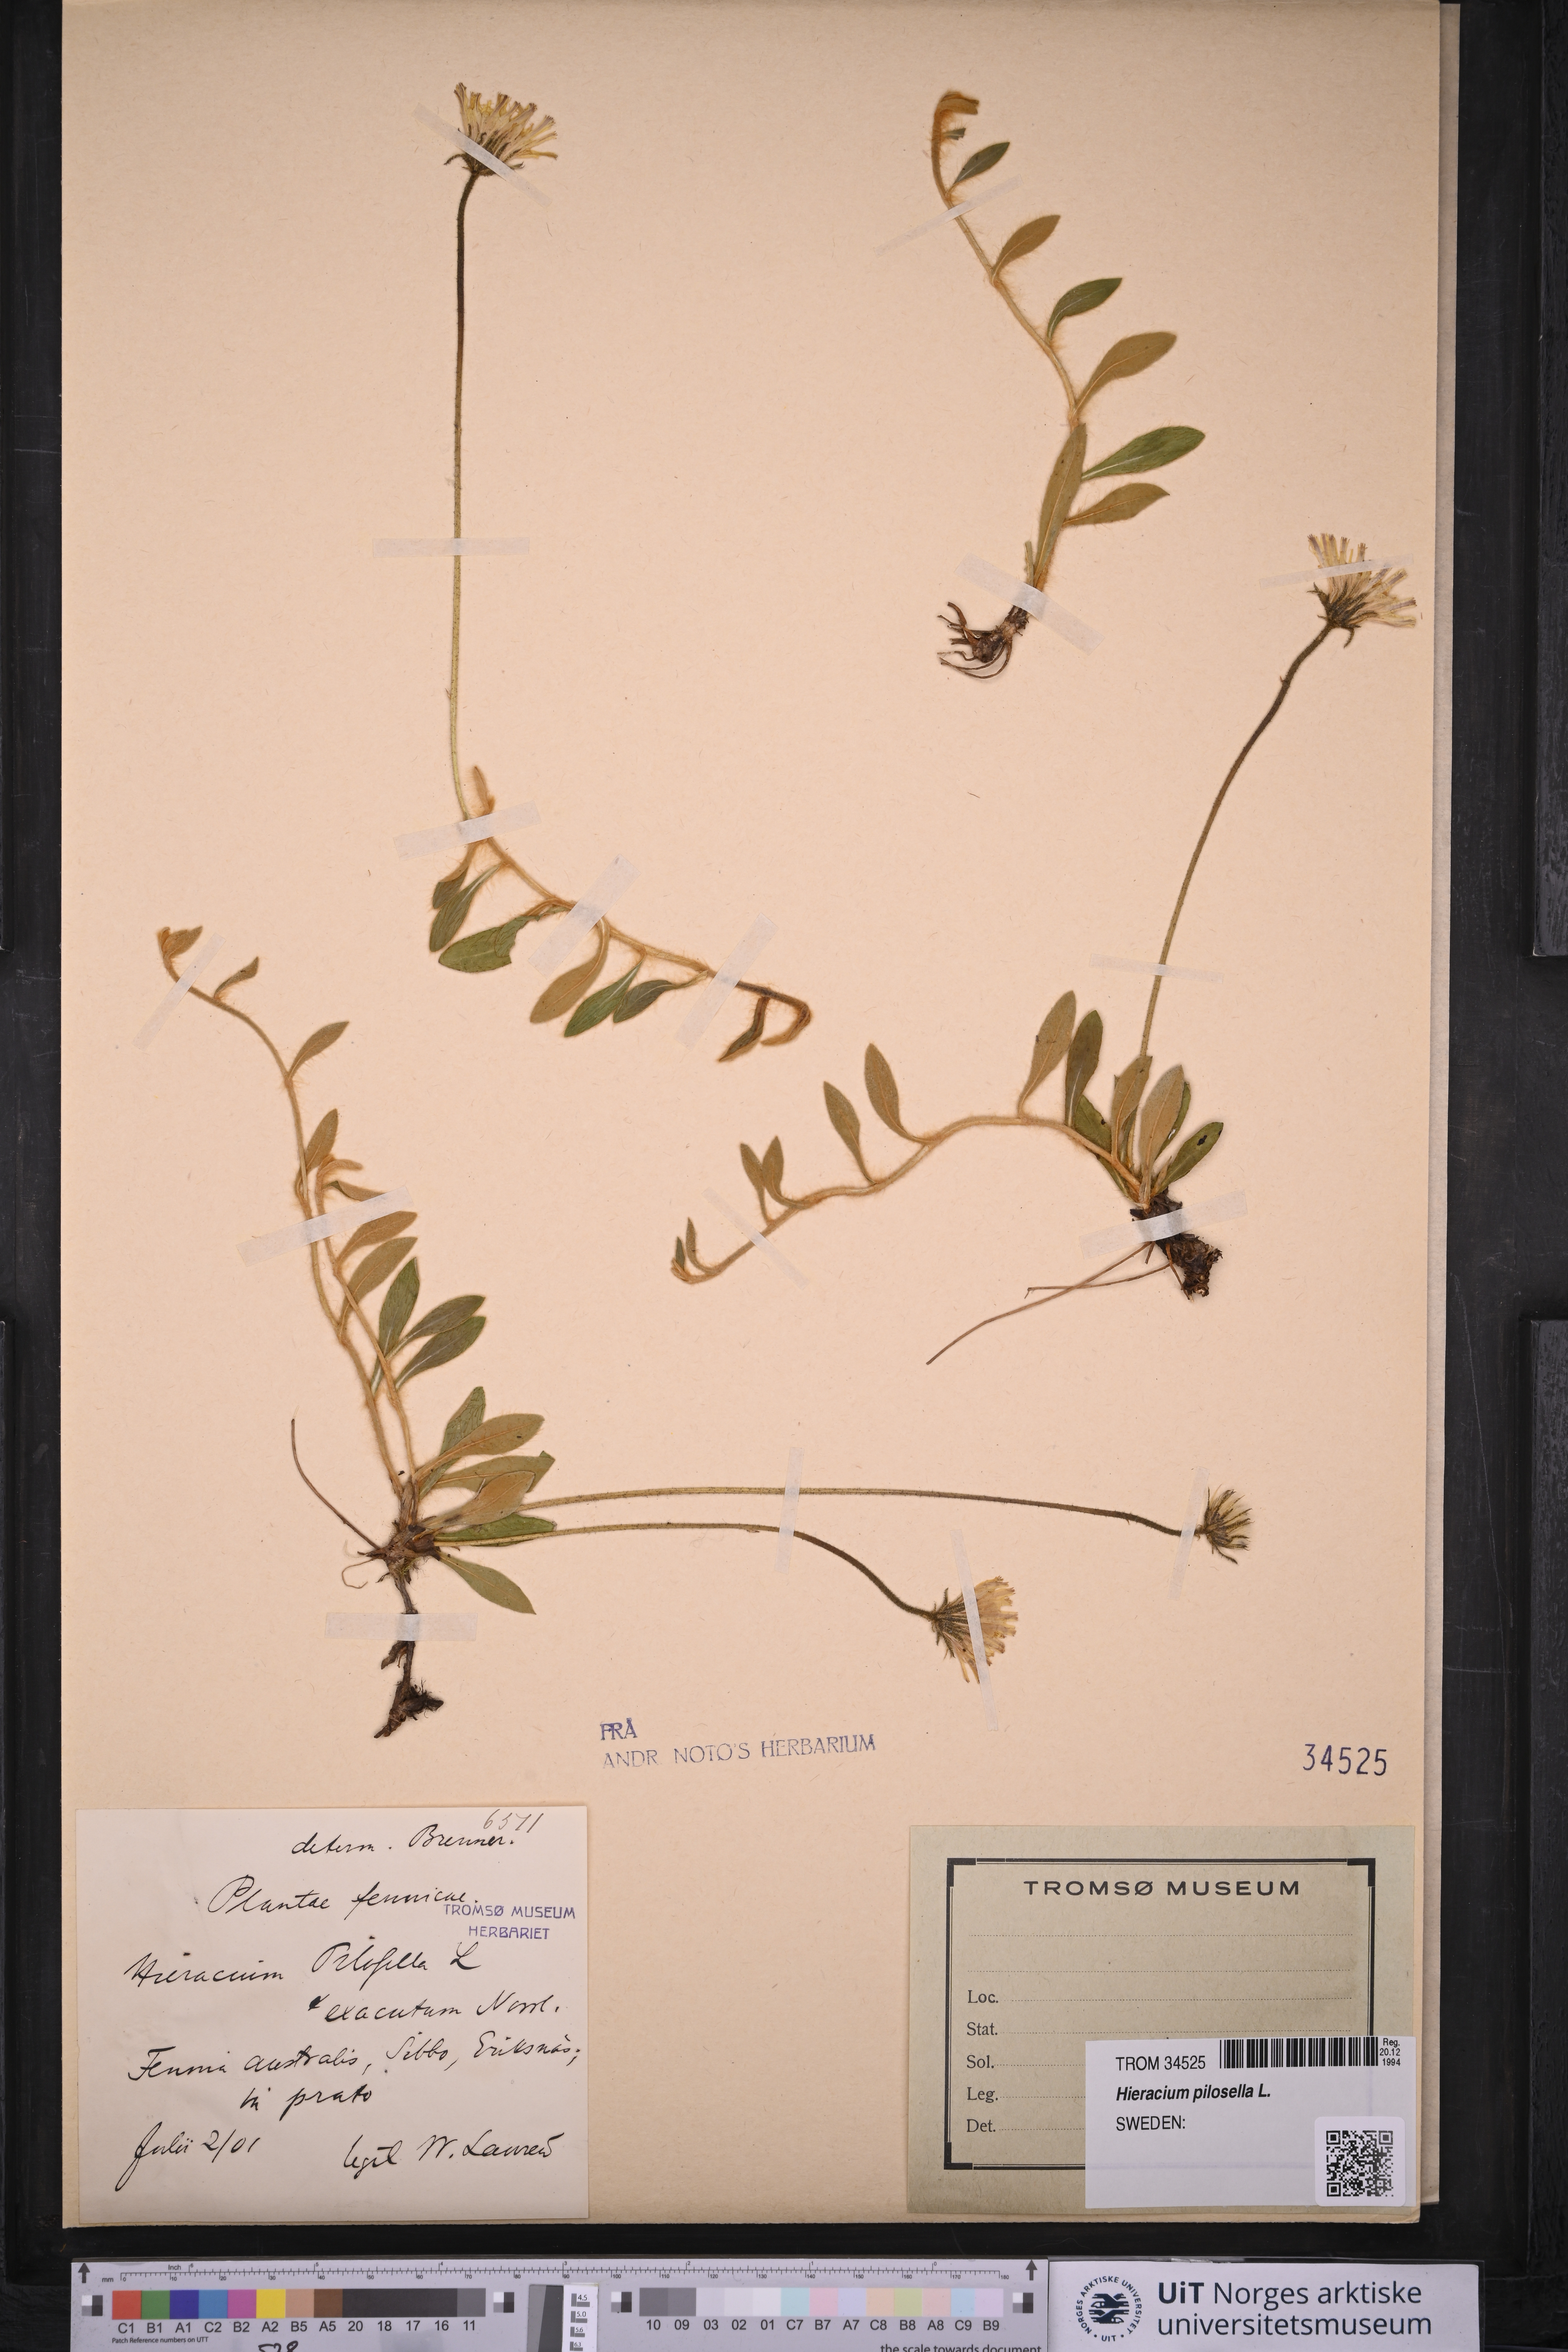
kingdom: Plantae
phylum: Tracheophyta
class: Magnoliopsida
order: Asterales
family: Asteraceae
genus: Pilosella
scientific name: Pilosella officinarum
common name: Mouse-ear hawkweed
